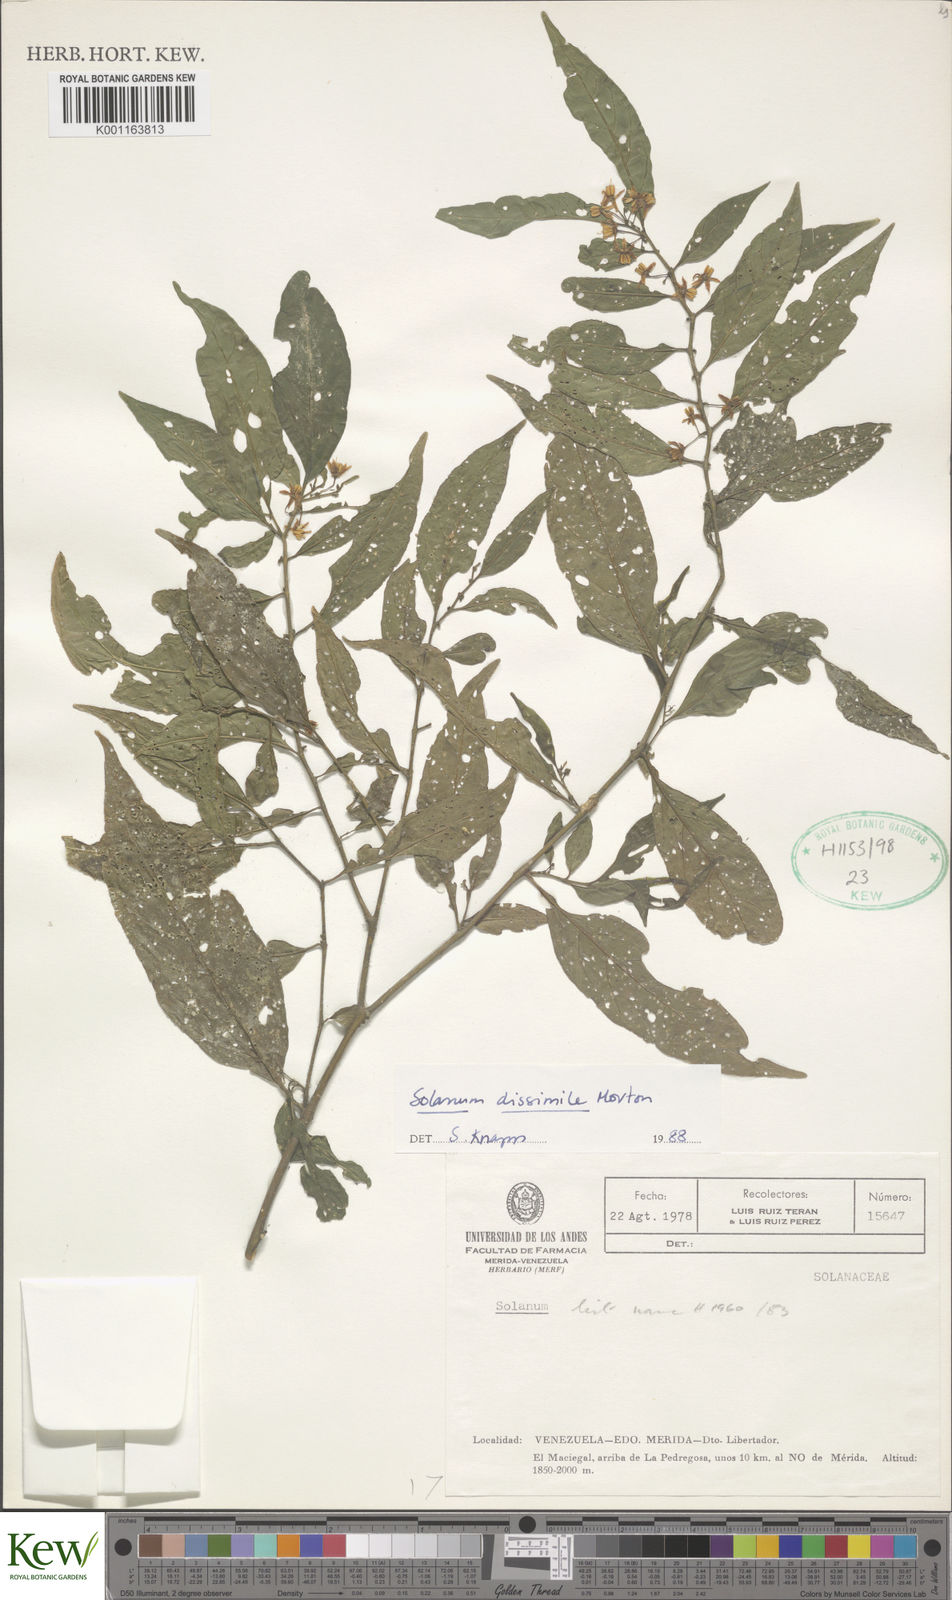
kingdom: Plantae
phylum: Tracheophyta
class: Magnoliopsida
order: Solanales
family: Solanaceae
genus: Solanum
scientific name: Solanum dissimile
